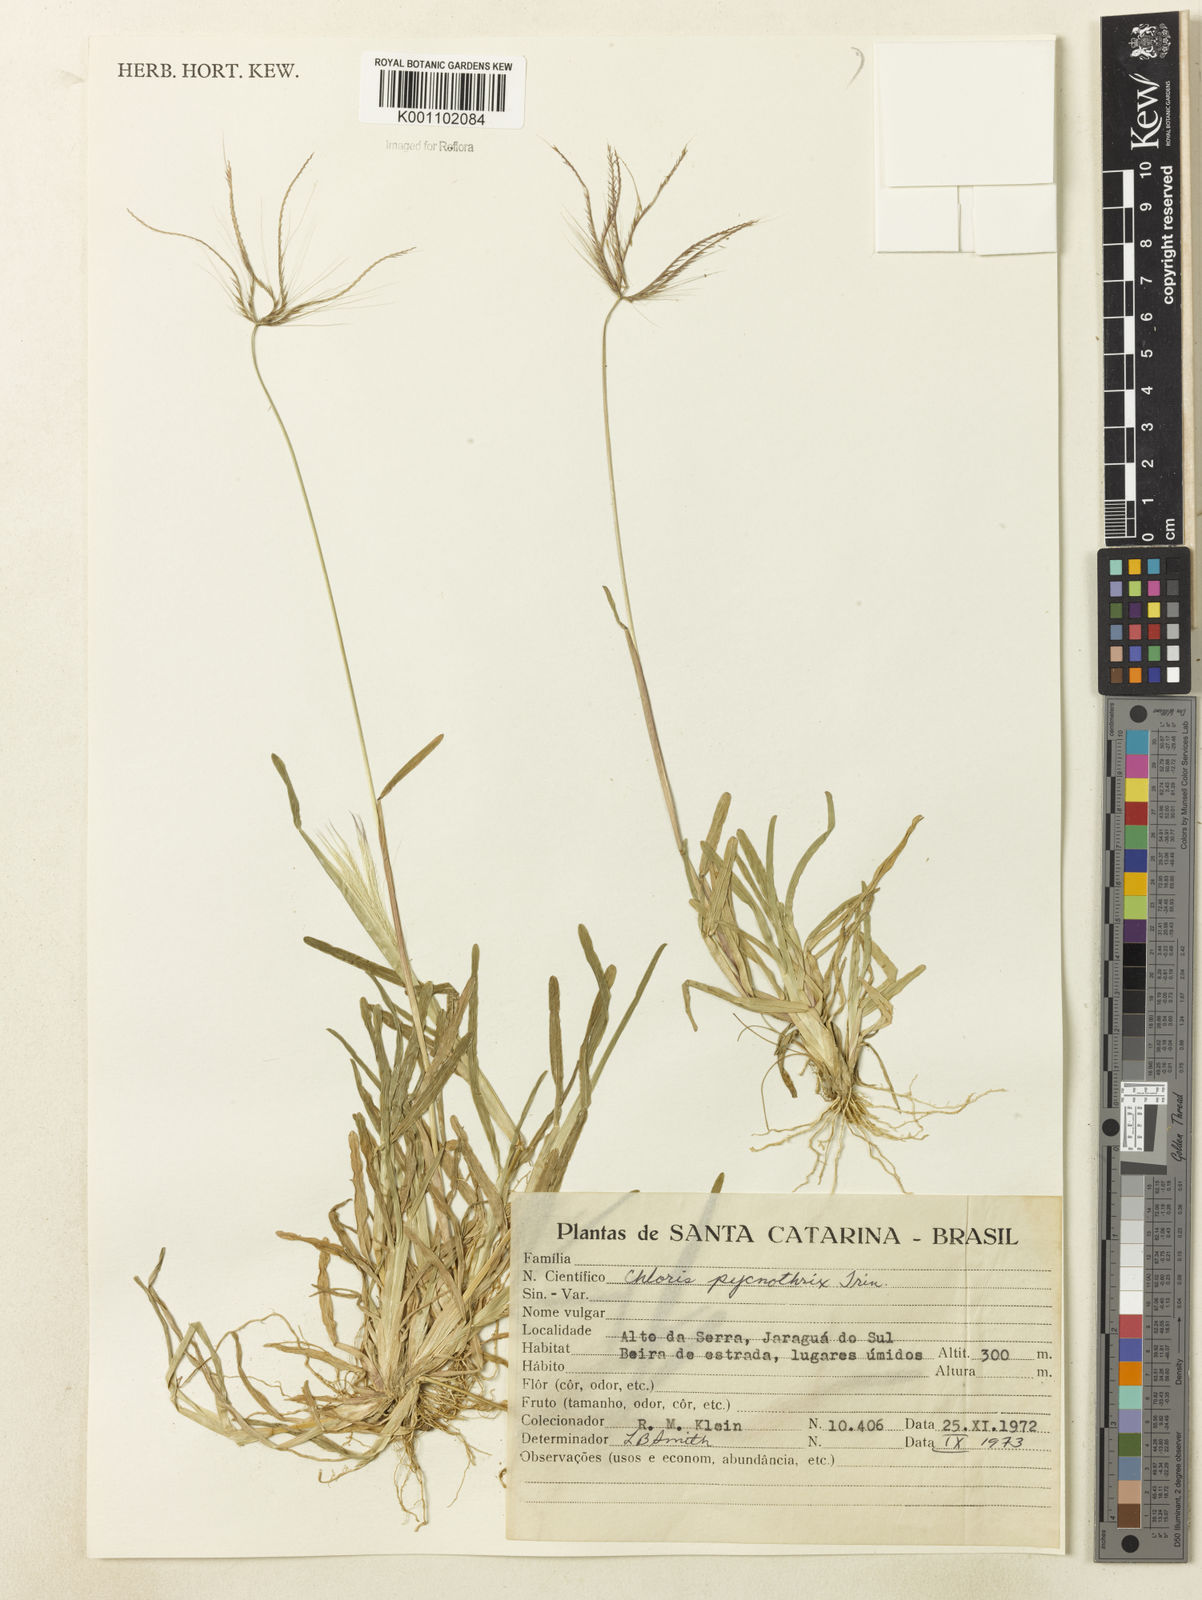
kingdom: Plantae
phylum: Tracheophyta
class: Liliopsida
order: Poales
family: Poaceae
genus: Chloris
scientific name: Chloris pycnothrix
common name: Spiderweb chloris
